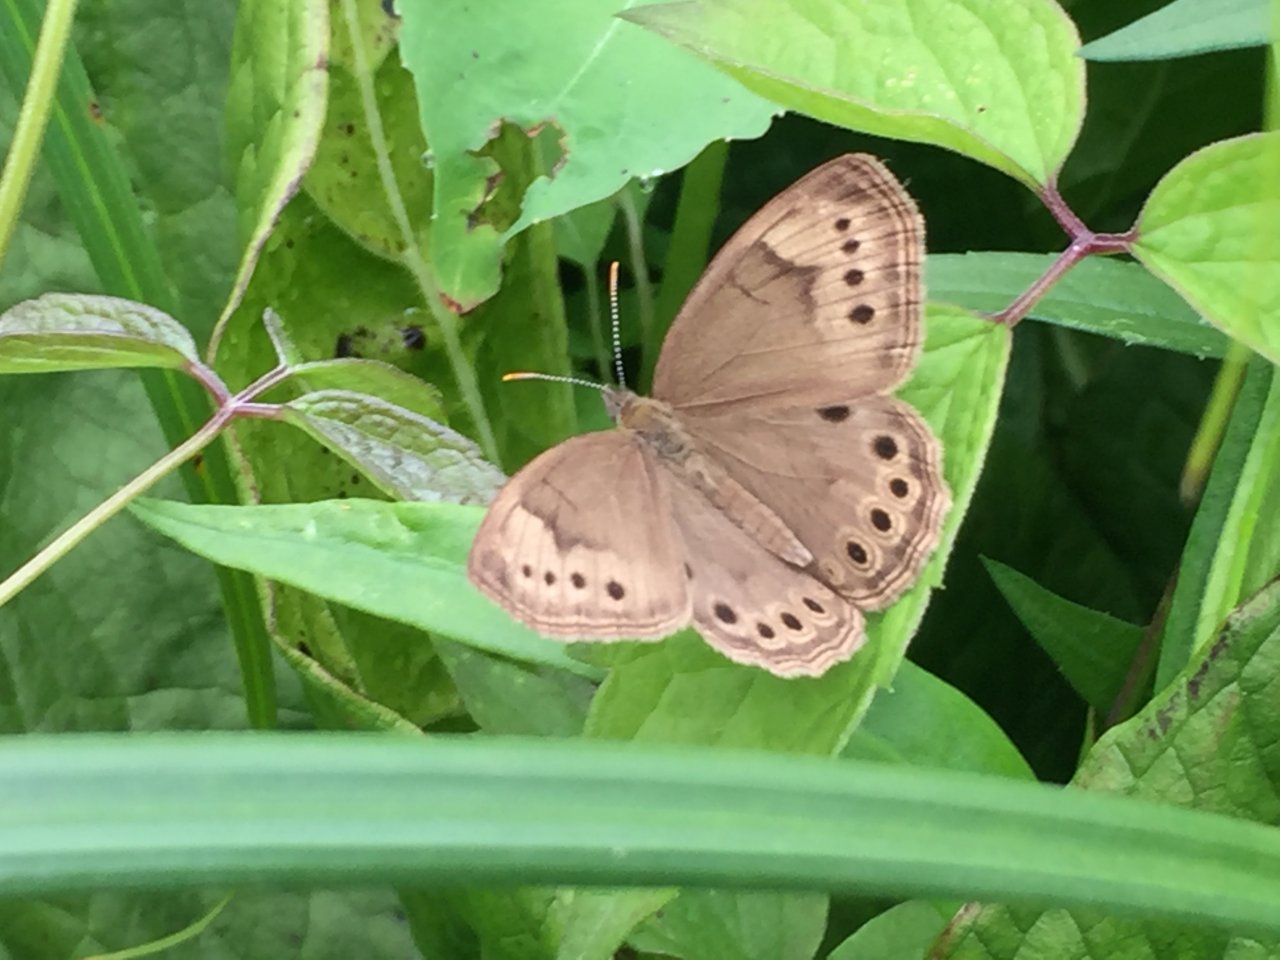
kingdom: Animalia
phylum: Arthropoda
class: Insecta
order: Lepidoptera
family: Nymphalidae
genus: Lethe
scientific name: Lethe eurydice
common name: Eyed Brown
